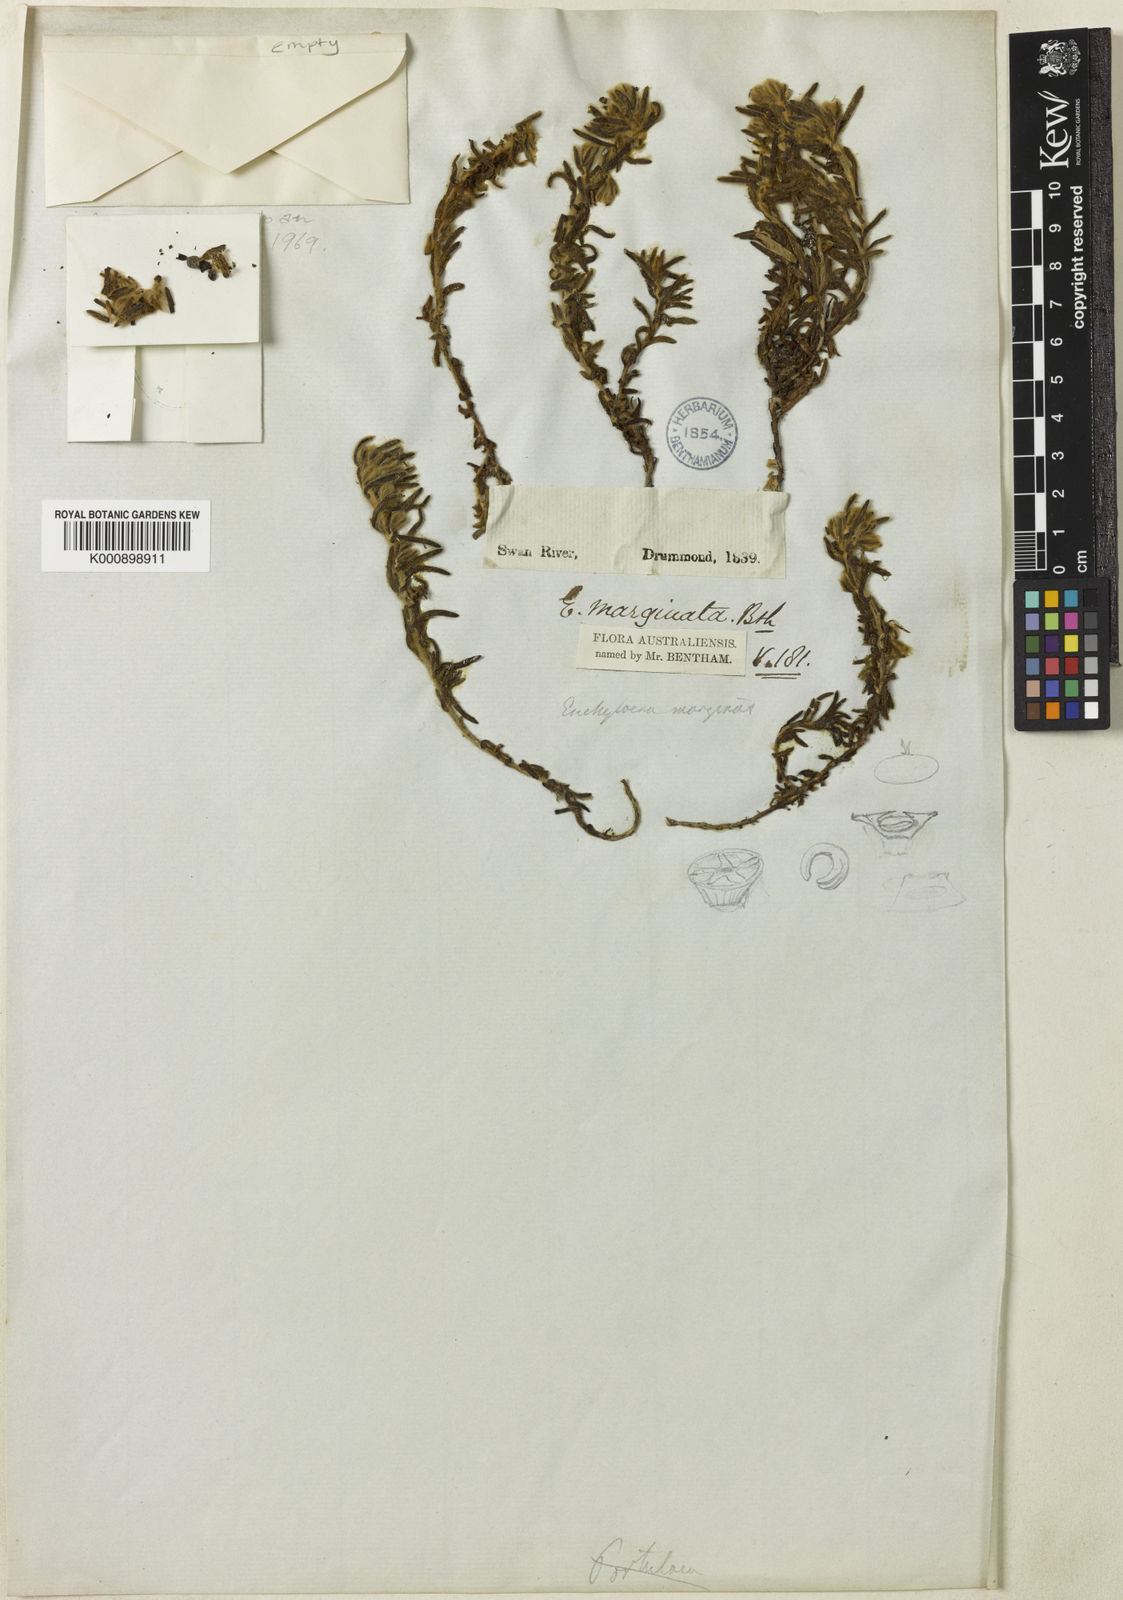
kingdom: Plantae
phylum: Tracheophyta
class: Magnoliopsida
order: Caryophyllales
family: Amaranthaceae
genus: Maireana
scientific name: Maireana marginata
